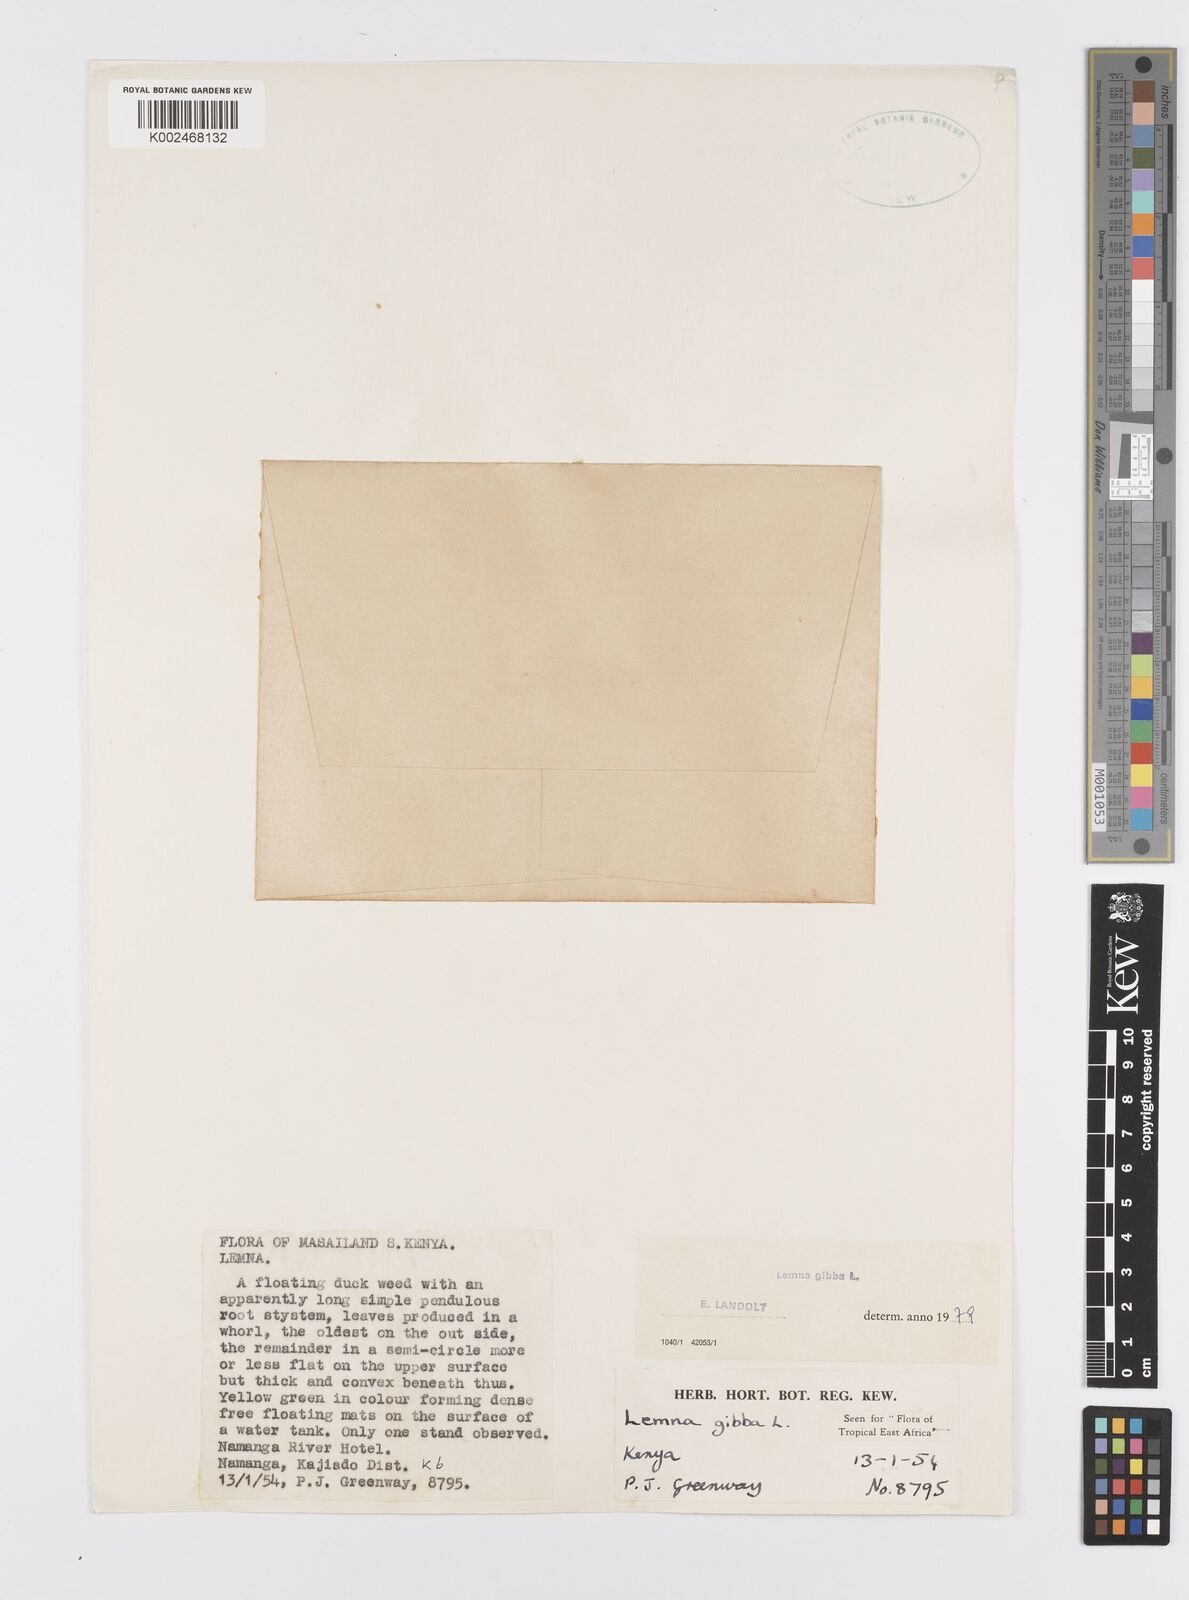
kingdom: Plantae
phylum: Tracheophyta
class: Liliopsida
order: Alismatales
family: Araceae
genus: Lemna
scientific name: Lemna gibba
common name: Fat duckweed
